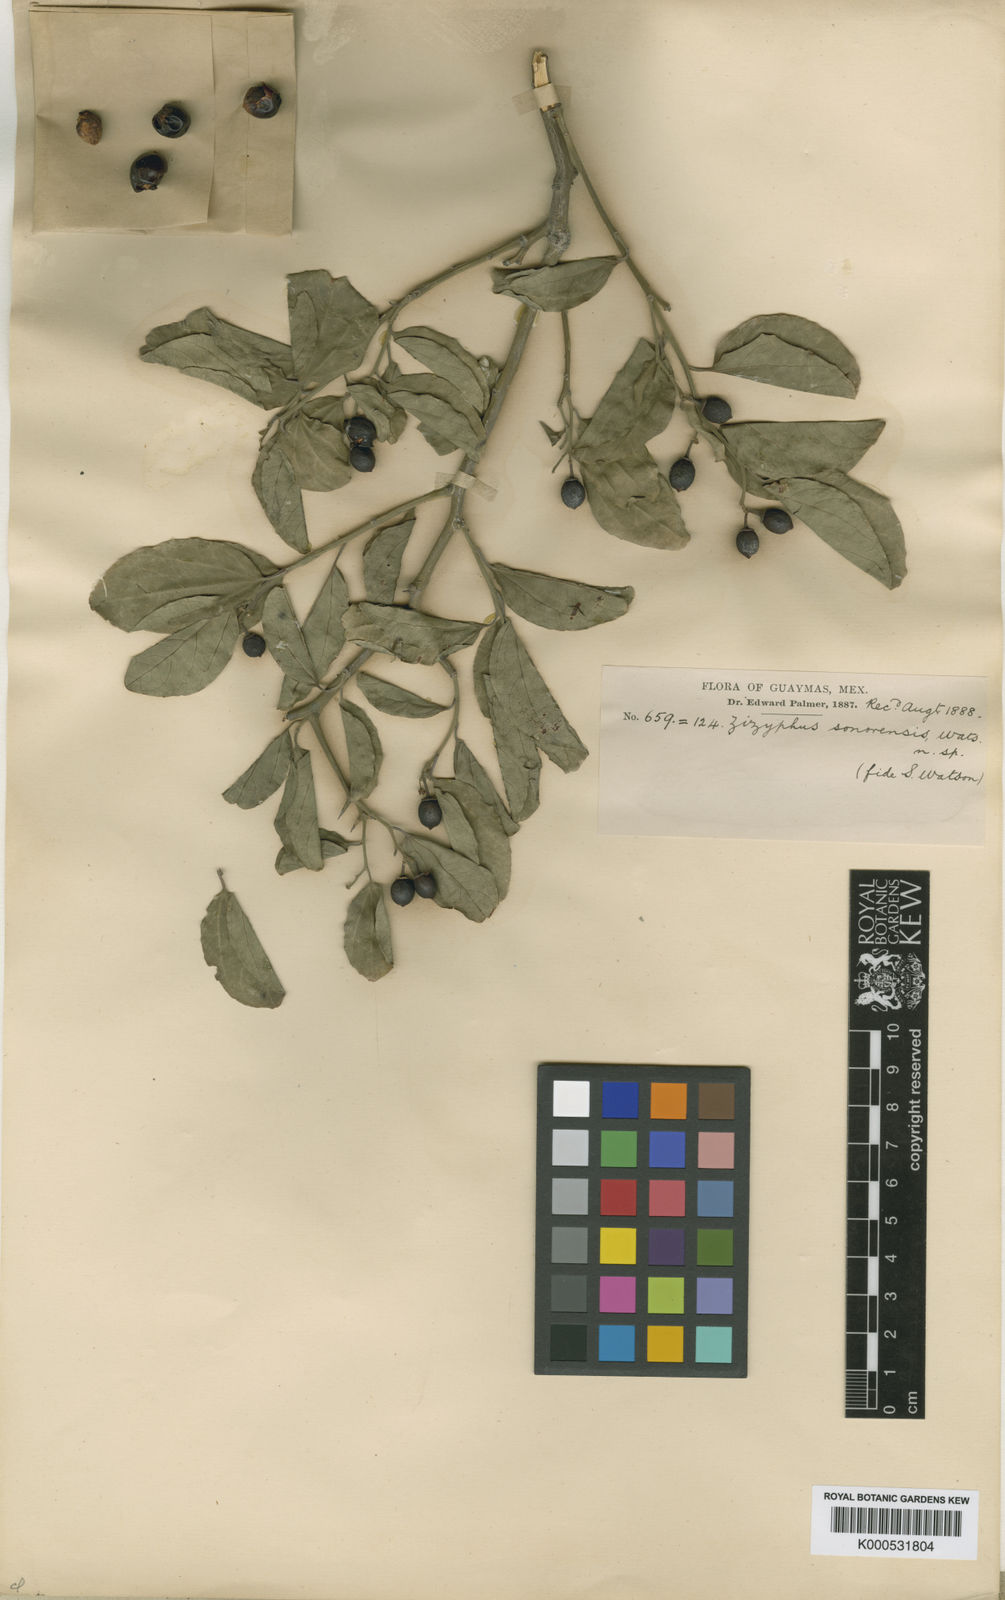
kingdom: Plantae
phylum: Tracheophyta
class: Magnoliopsida
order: Rosales
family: Rhamnaceae
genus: Sarcomphalus
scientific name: Sarcomphalus amole
